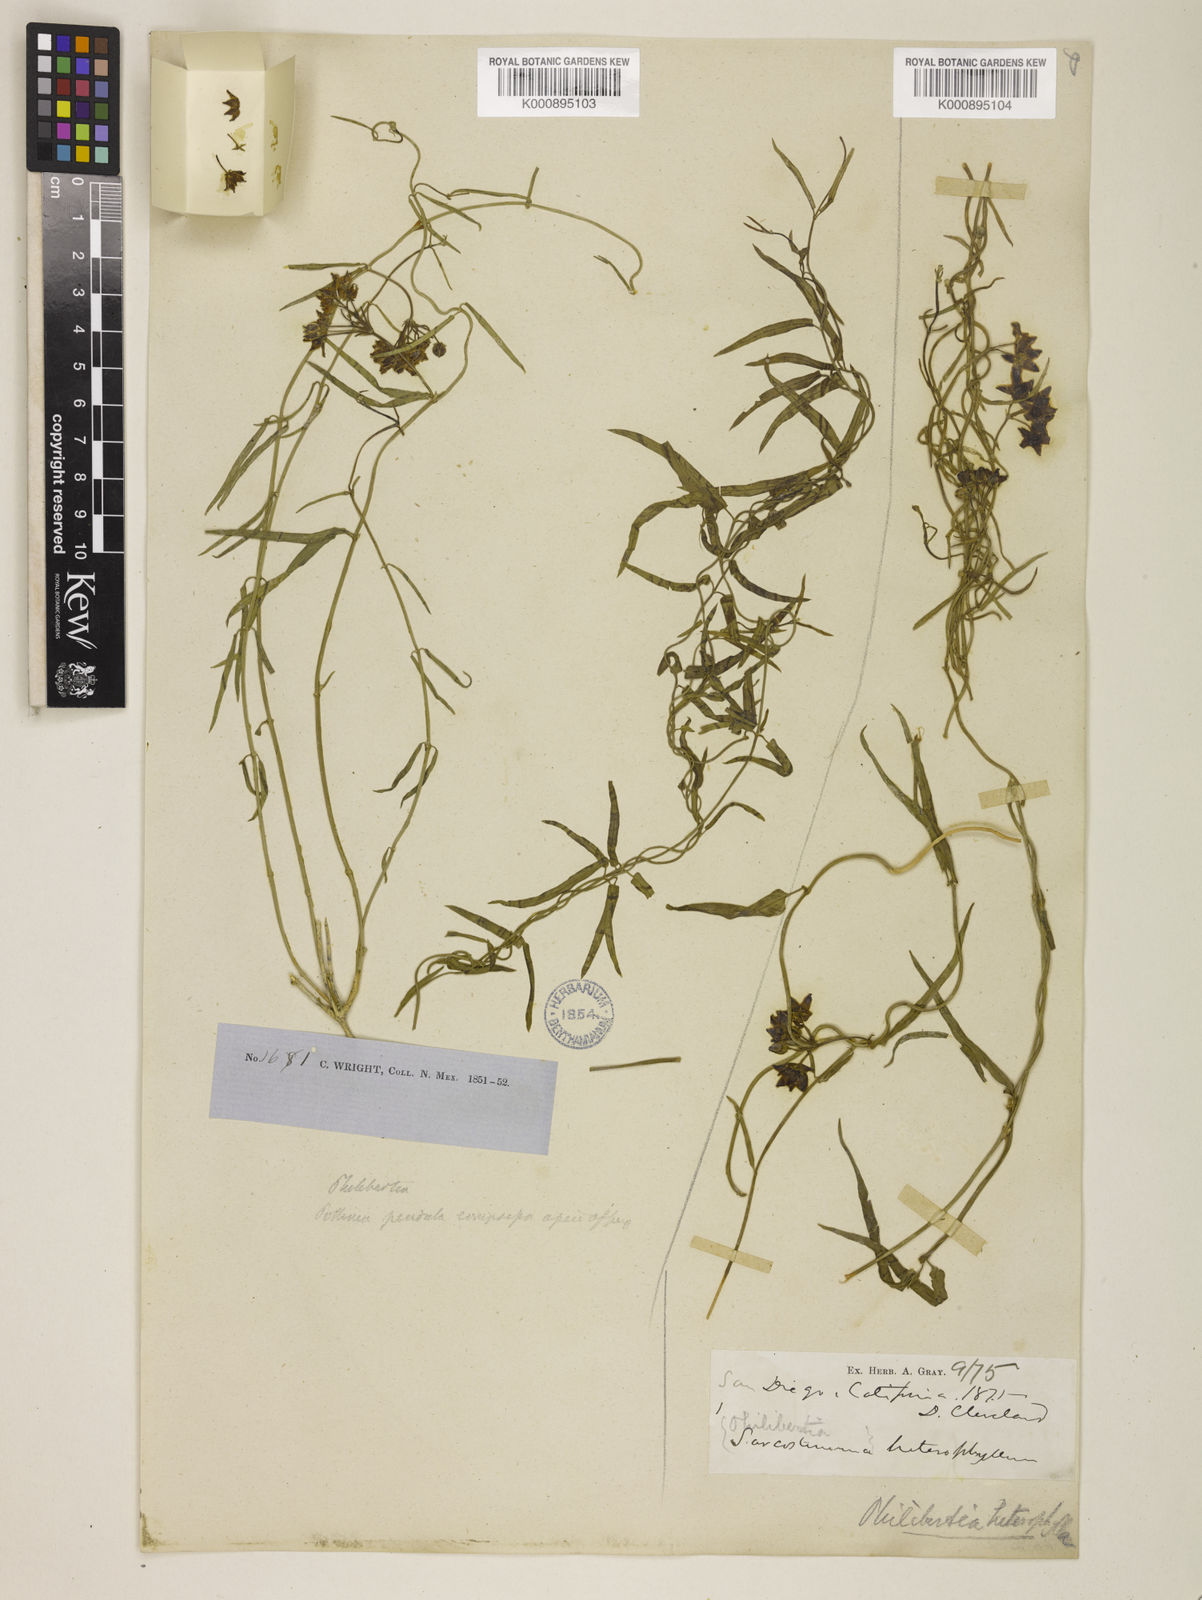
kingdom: Plantae
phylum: Tracheophyta
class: Magnoliopsida
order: Gentianales
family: Apocynaceae
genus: Funastrum
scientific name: Funastrum cynanchoides
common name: Climbing-milkweed
